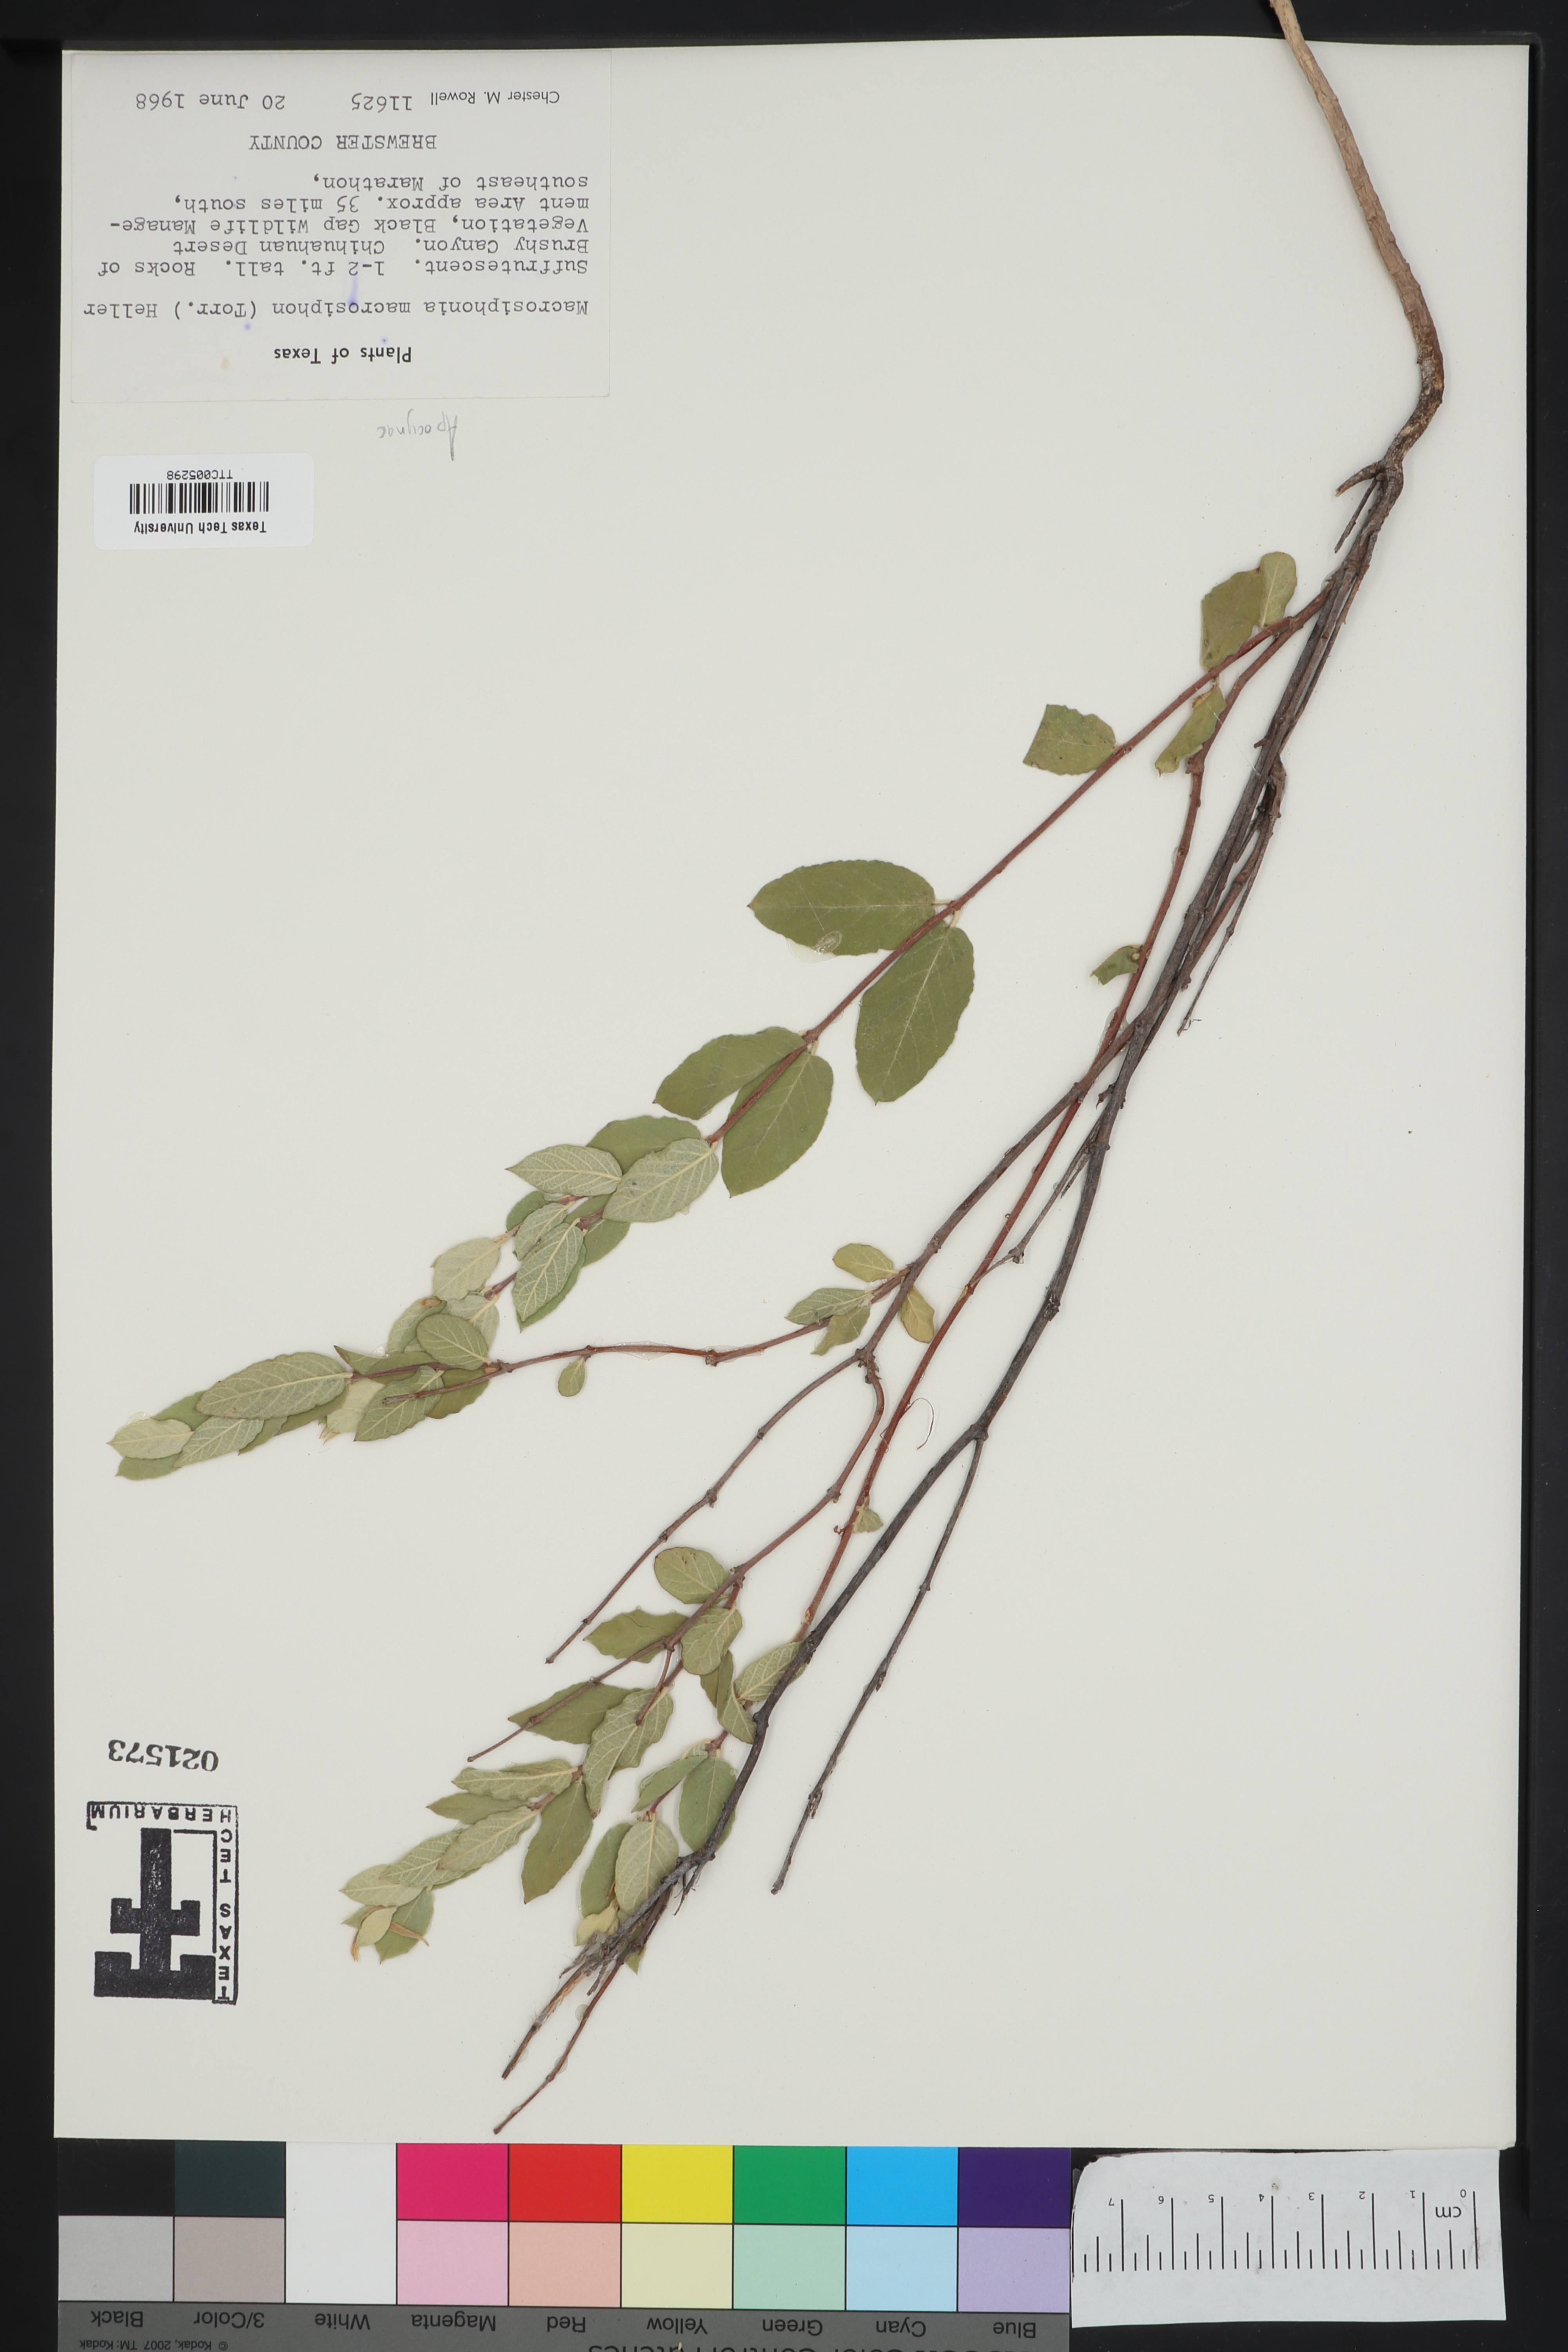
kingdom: Plantae
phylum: Tracheophyta
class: Magnoliopsida
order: Gentianales
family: Apocynaceae
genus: Mandevilla
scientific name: Mandevilla macrosiphon
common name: Plateau rocktrumpet
